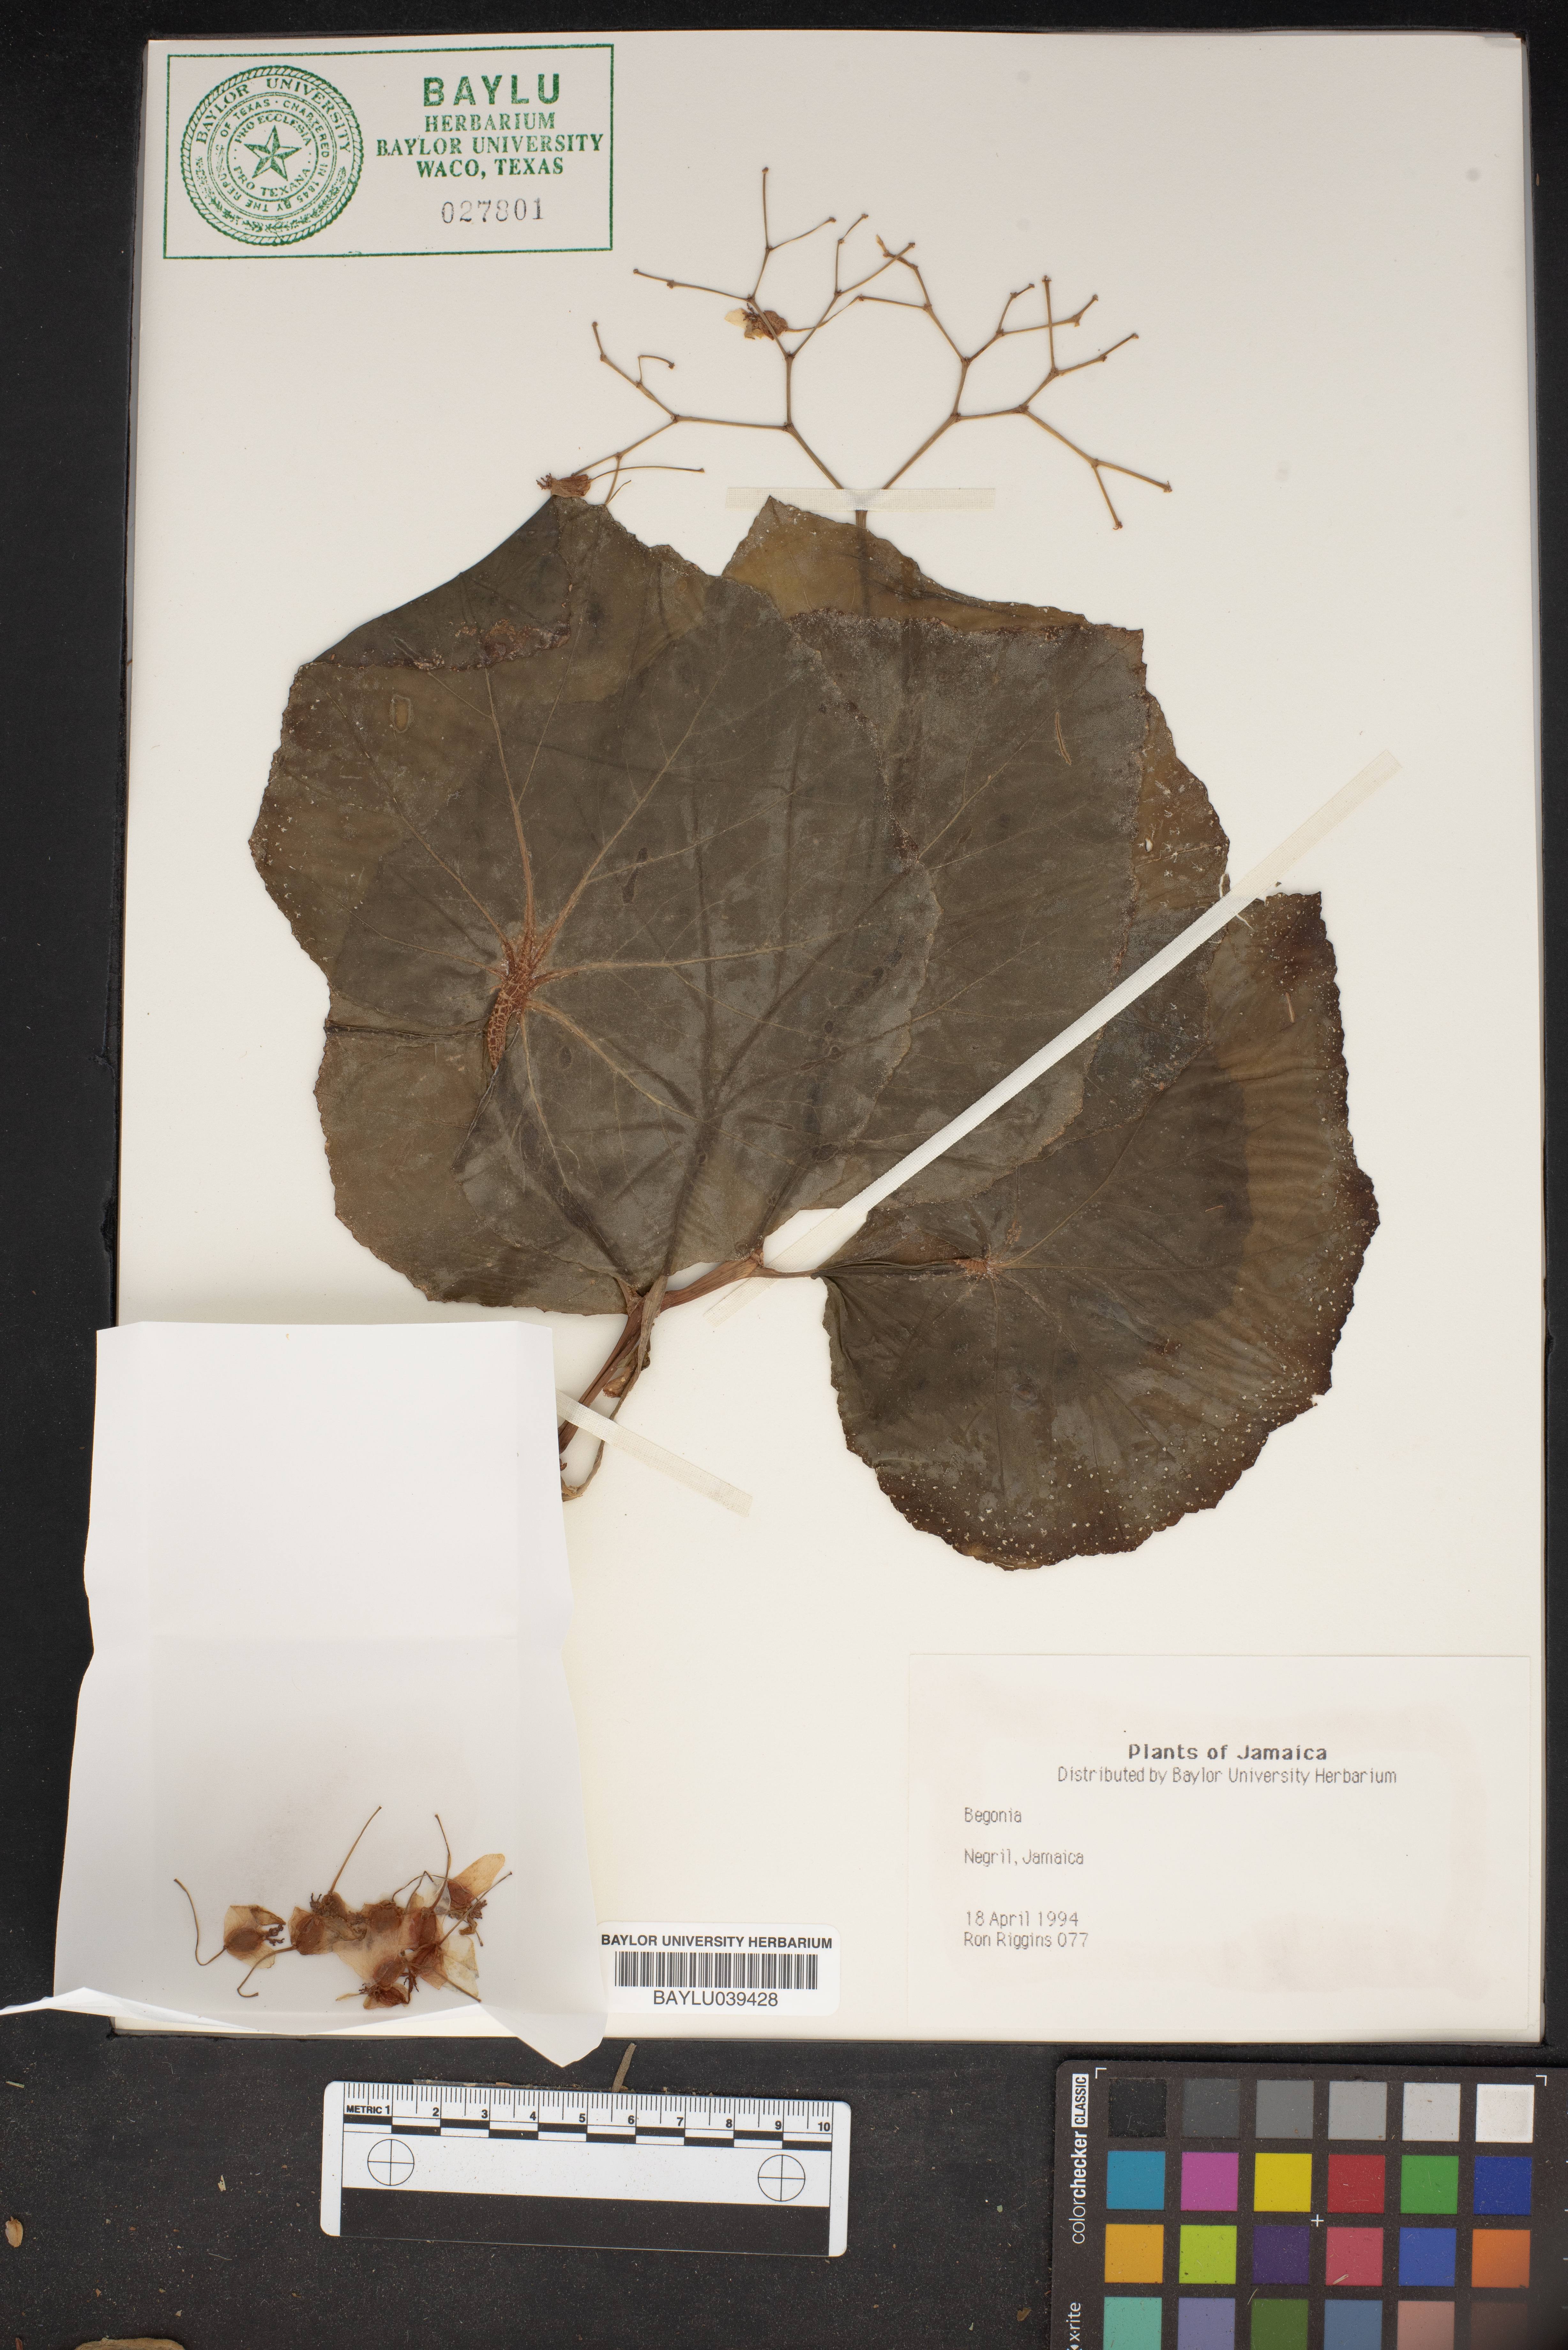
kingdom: Plantae
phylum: Tracheophyta
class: Magnoliopsida
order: Cucurbitales
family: Begoniaceae
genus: Begonia
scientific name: Begonia
